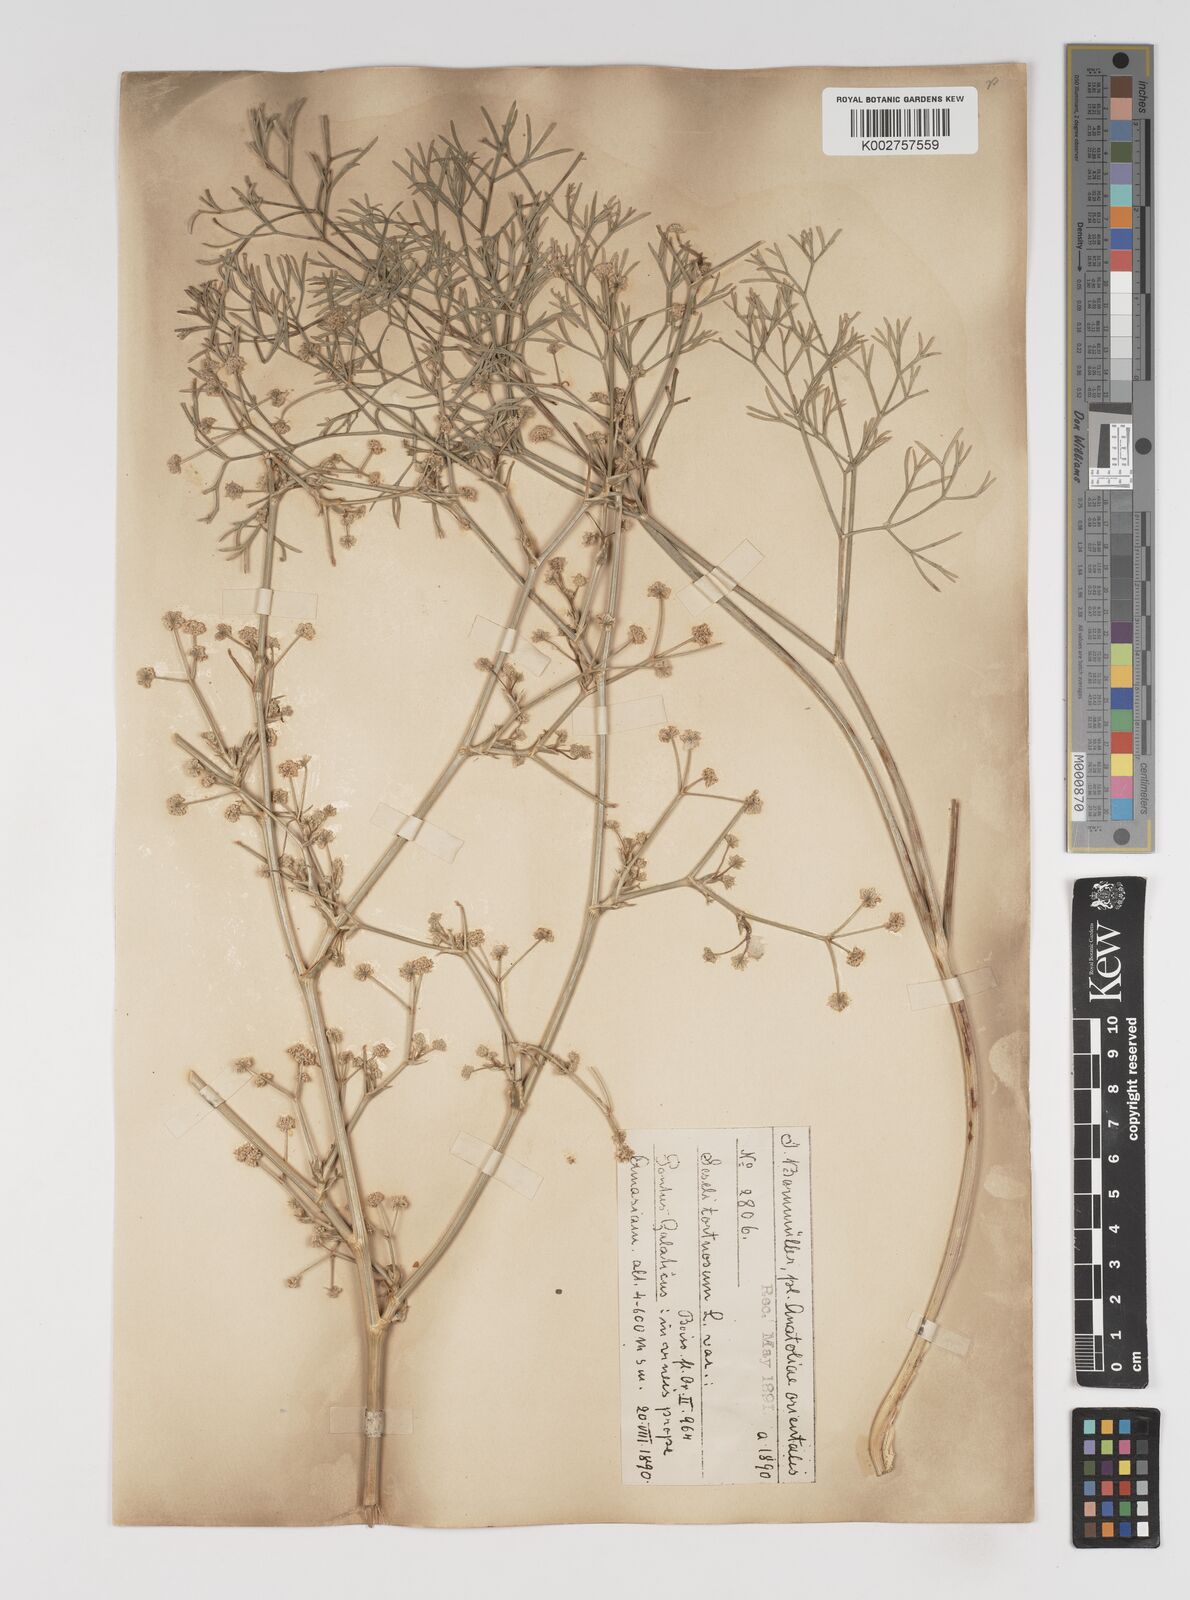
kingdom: Plantae
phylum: Tracheophyta
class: Magnoliopsida
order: Apiales
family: Apiaceae
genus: Seseli
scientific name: Seseli tortuosum
